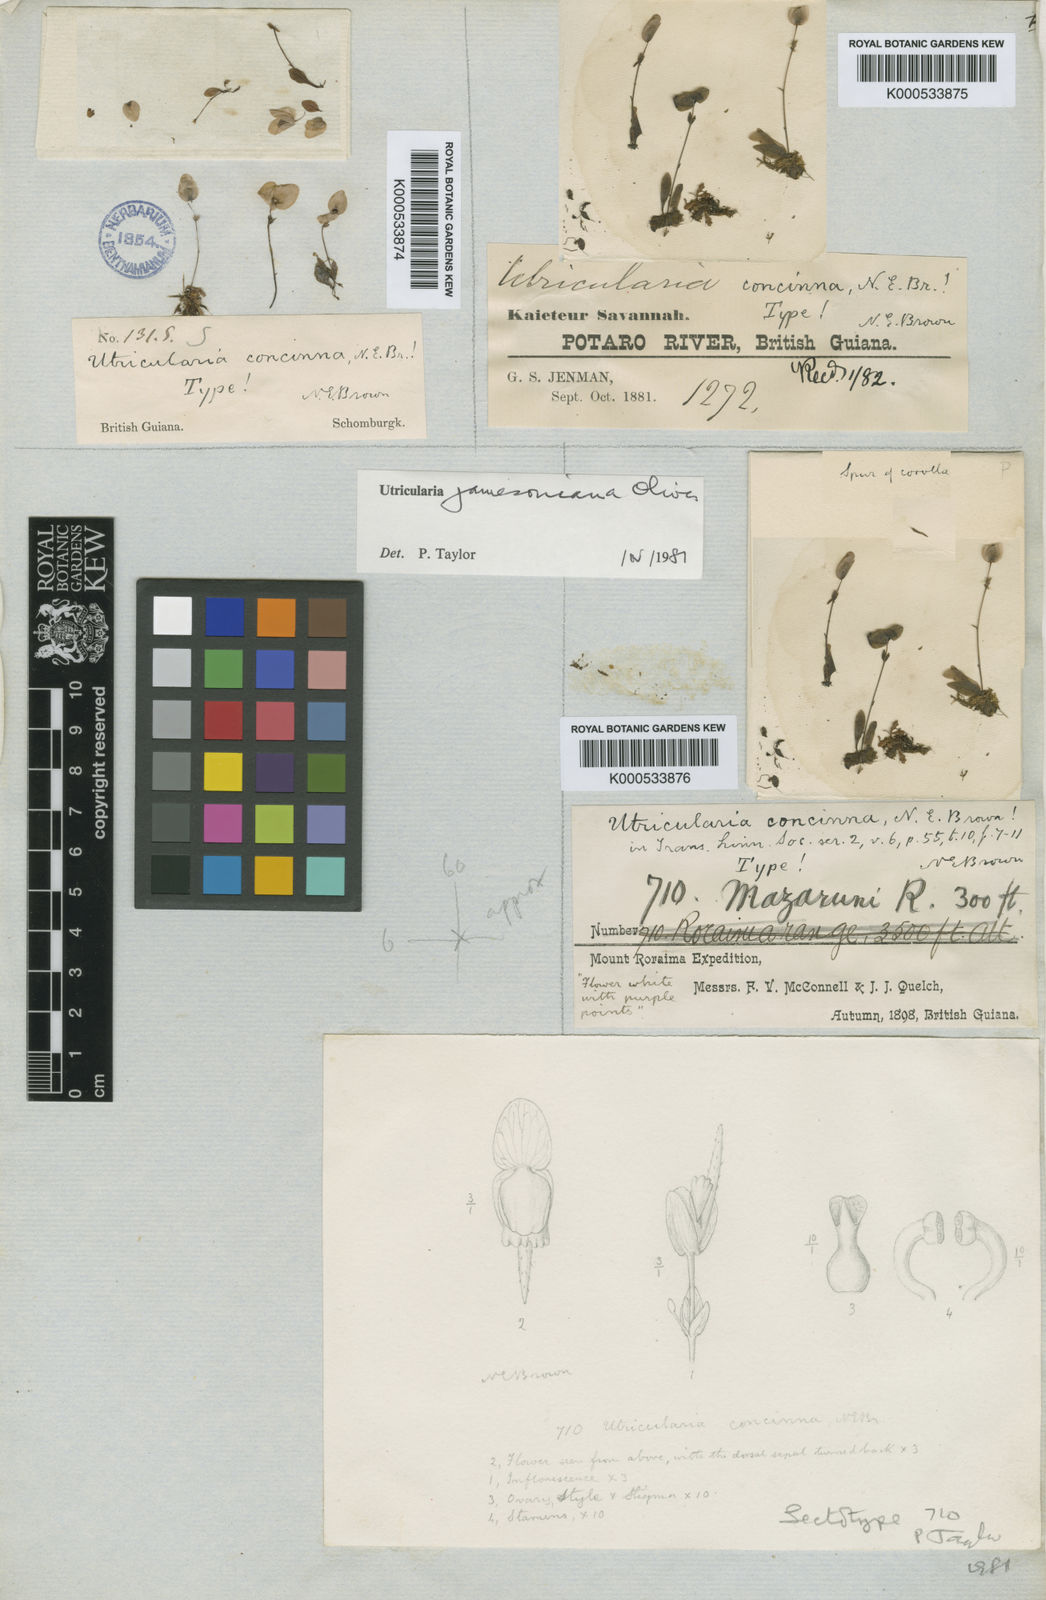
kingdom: Plantae
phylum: Tracheophyta
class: Magnoliopsida
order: Lamiales
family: Lentibulariaceae
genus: Utricularia
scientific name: Utricularia jamesoniana
